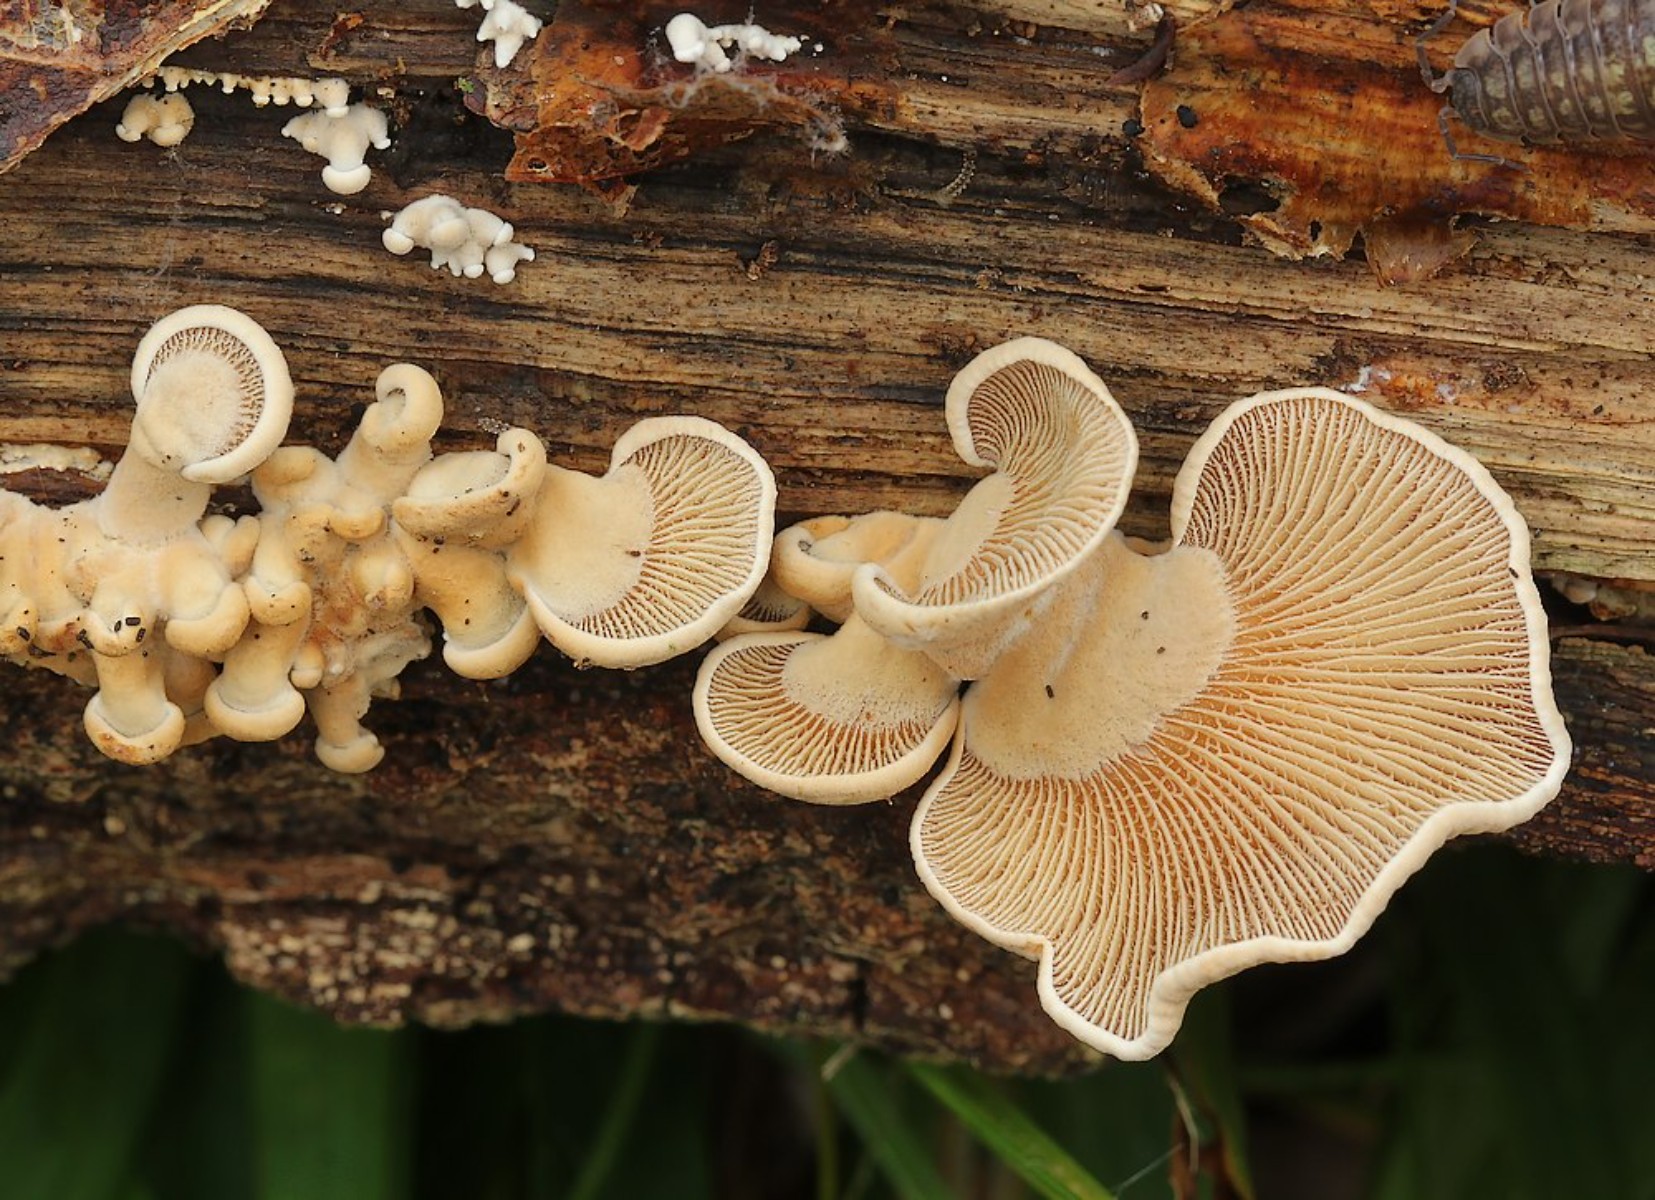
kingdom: Fungi
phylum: Basidiomycota
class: Agaricomycetes
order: Agaricales
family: Mycenaceae
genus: Panellus
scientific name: Panellus stipticus
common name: kliddet epaulethat
